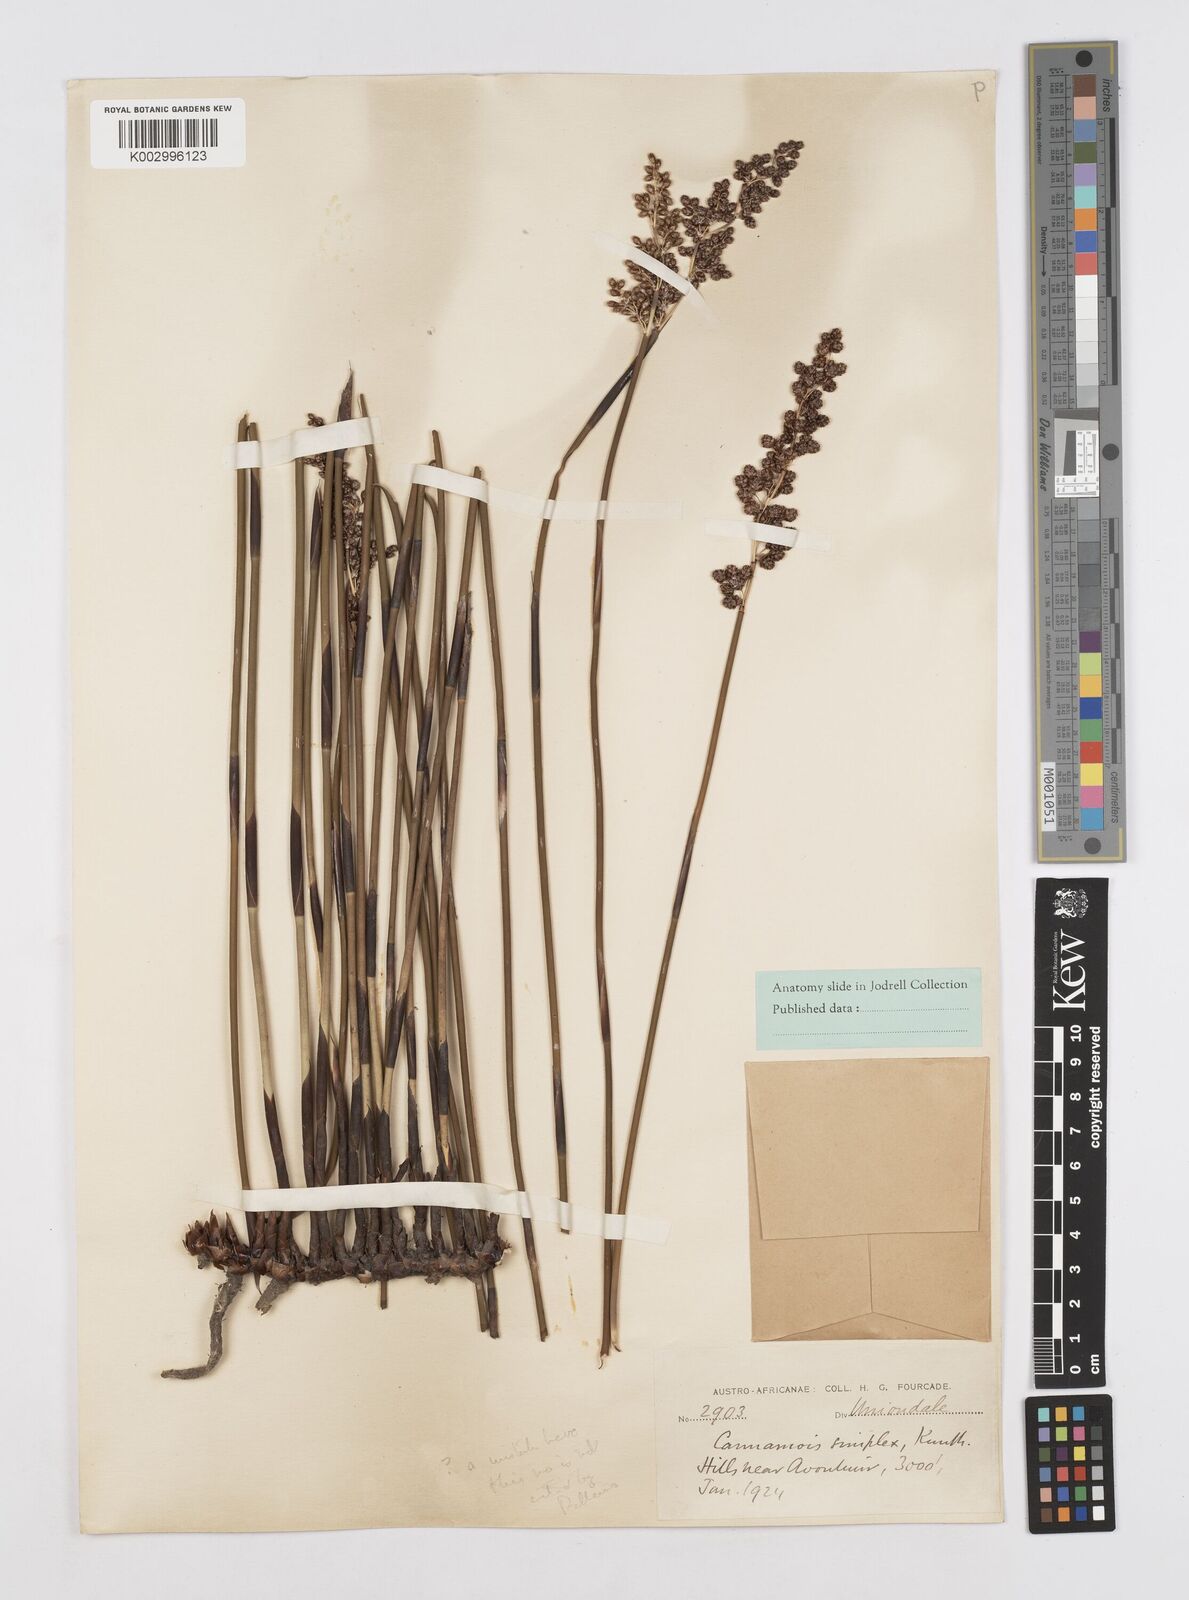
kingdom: Plantae
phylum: Tracheophyta
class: Liliopsida
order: Poales
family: Restionaceae
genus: Cannomois
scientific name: Cannomois scirpoides
